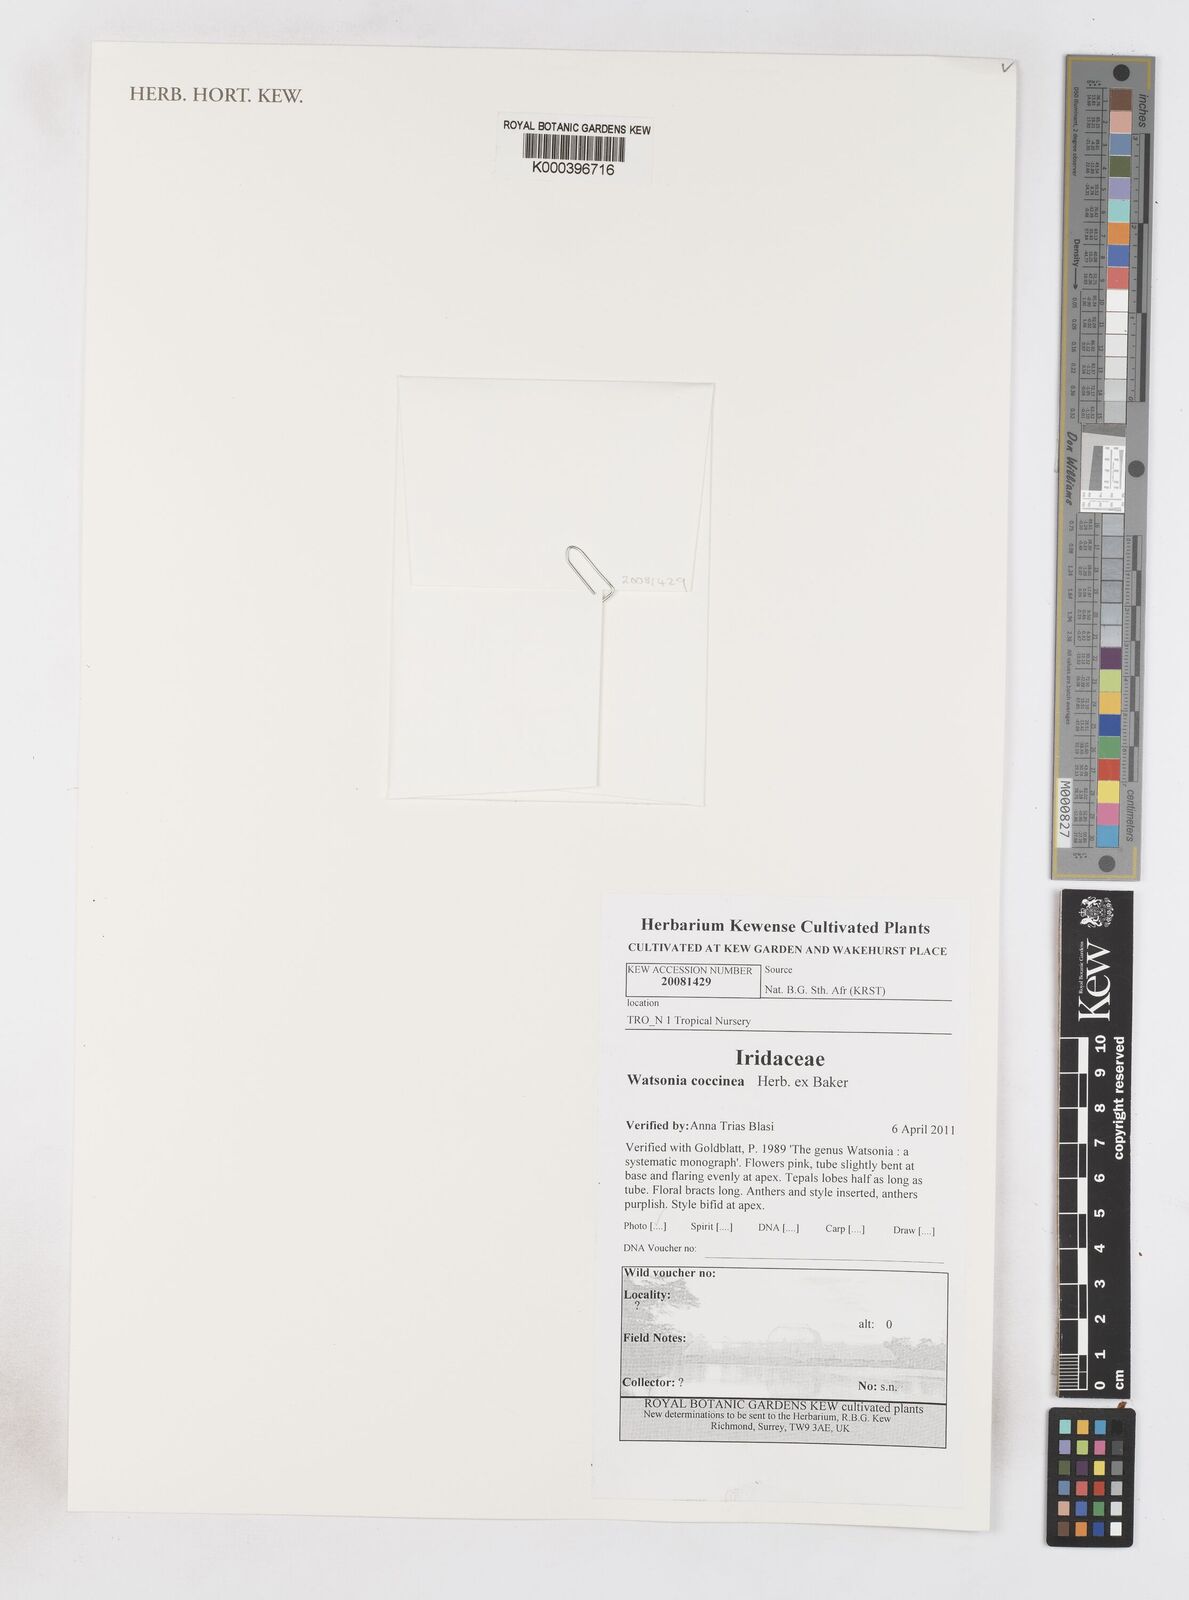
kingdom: Plantae
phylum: Tracheophyta
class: Liliopsida
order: Asparagales
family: Iridaceae
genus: Watsonia
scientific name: Watsonia coccinea
